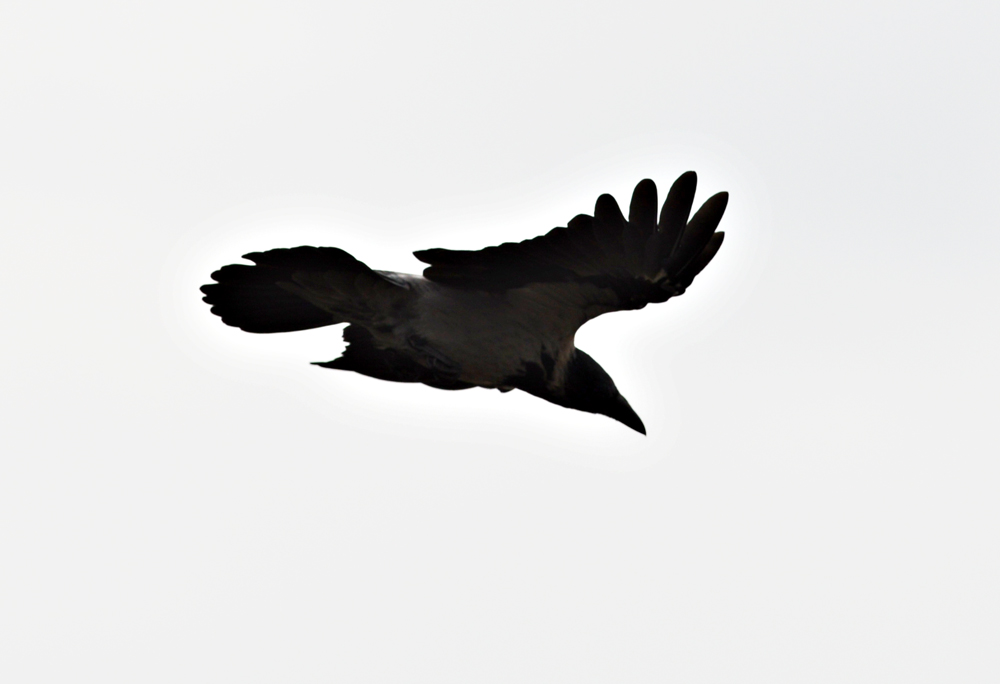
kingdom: Animalia
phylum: Chordata
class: Aves
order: Passeriformes
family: Corvidae
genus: Corvus
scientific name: Corvus cornix
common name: Hooded crow
